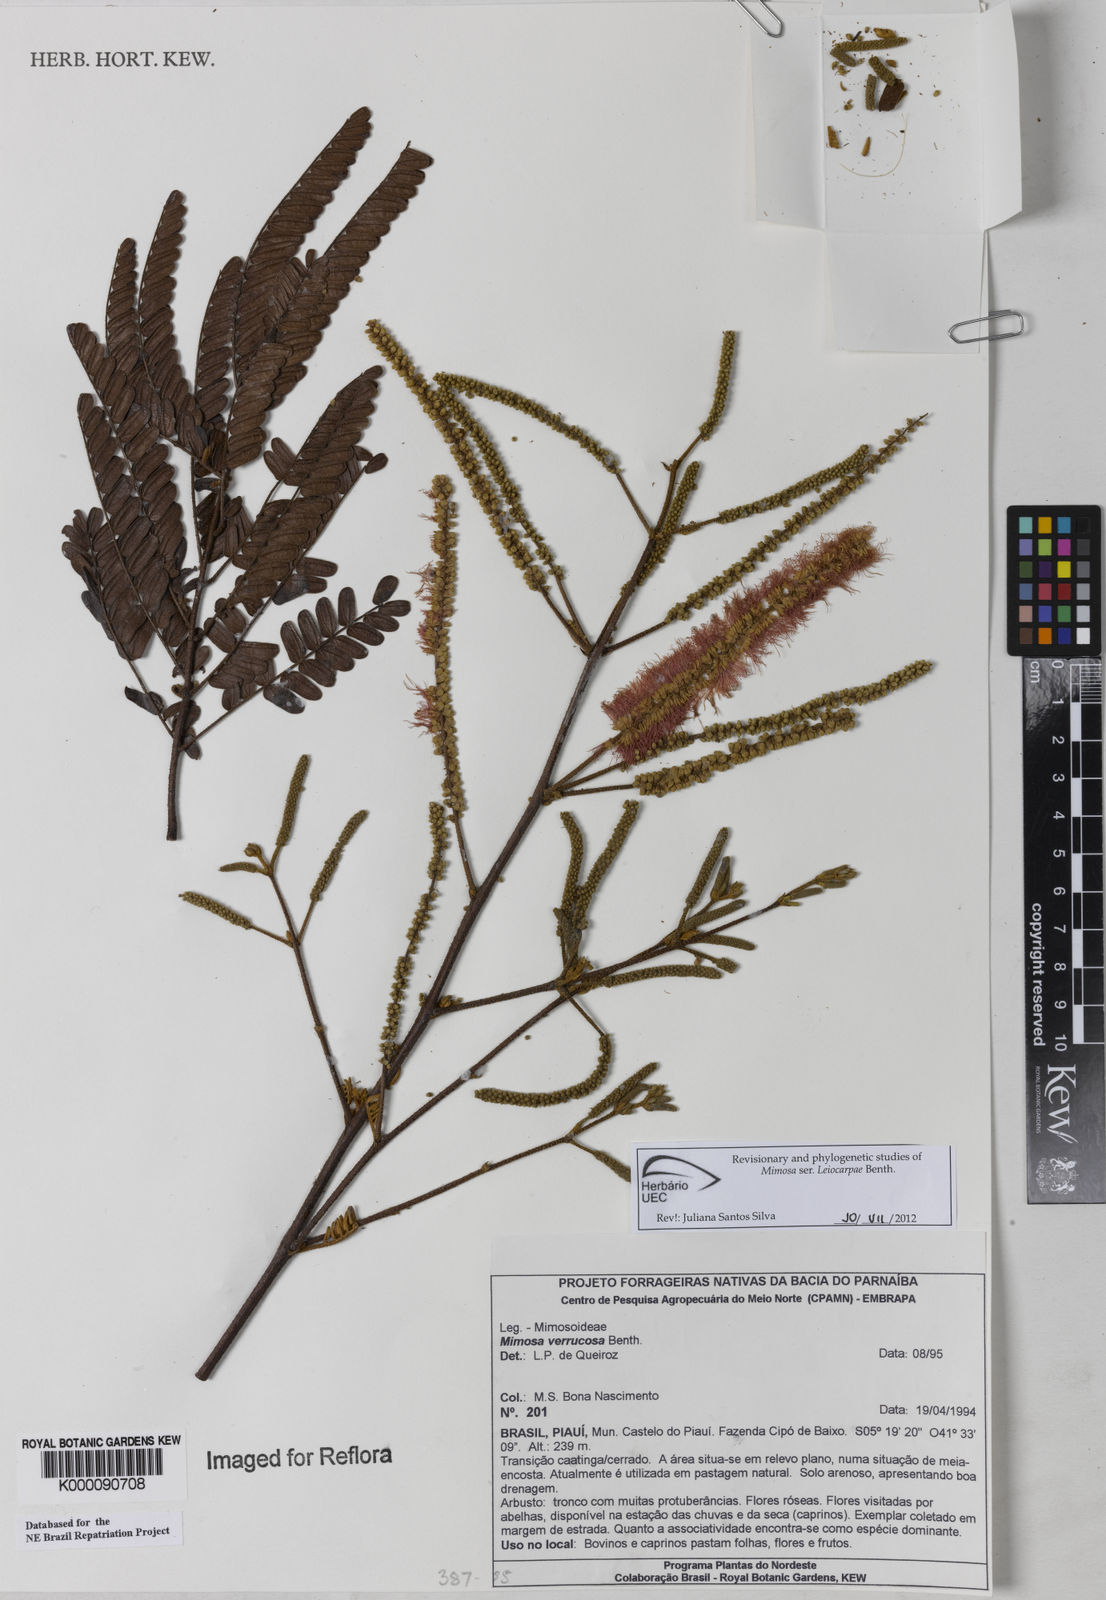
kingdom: Plantae
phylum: Tracheophyta
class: Magnoliopsida
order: Fabales
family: Fabaceae
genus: Mimosa
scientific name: Mimosa verrucosa
